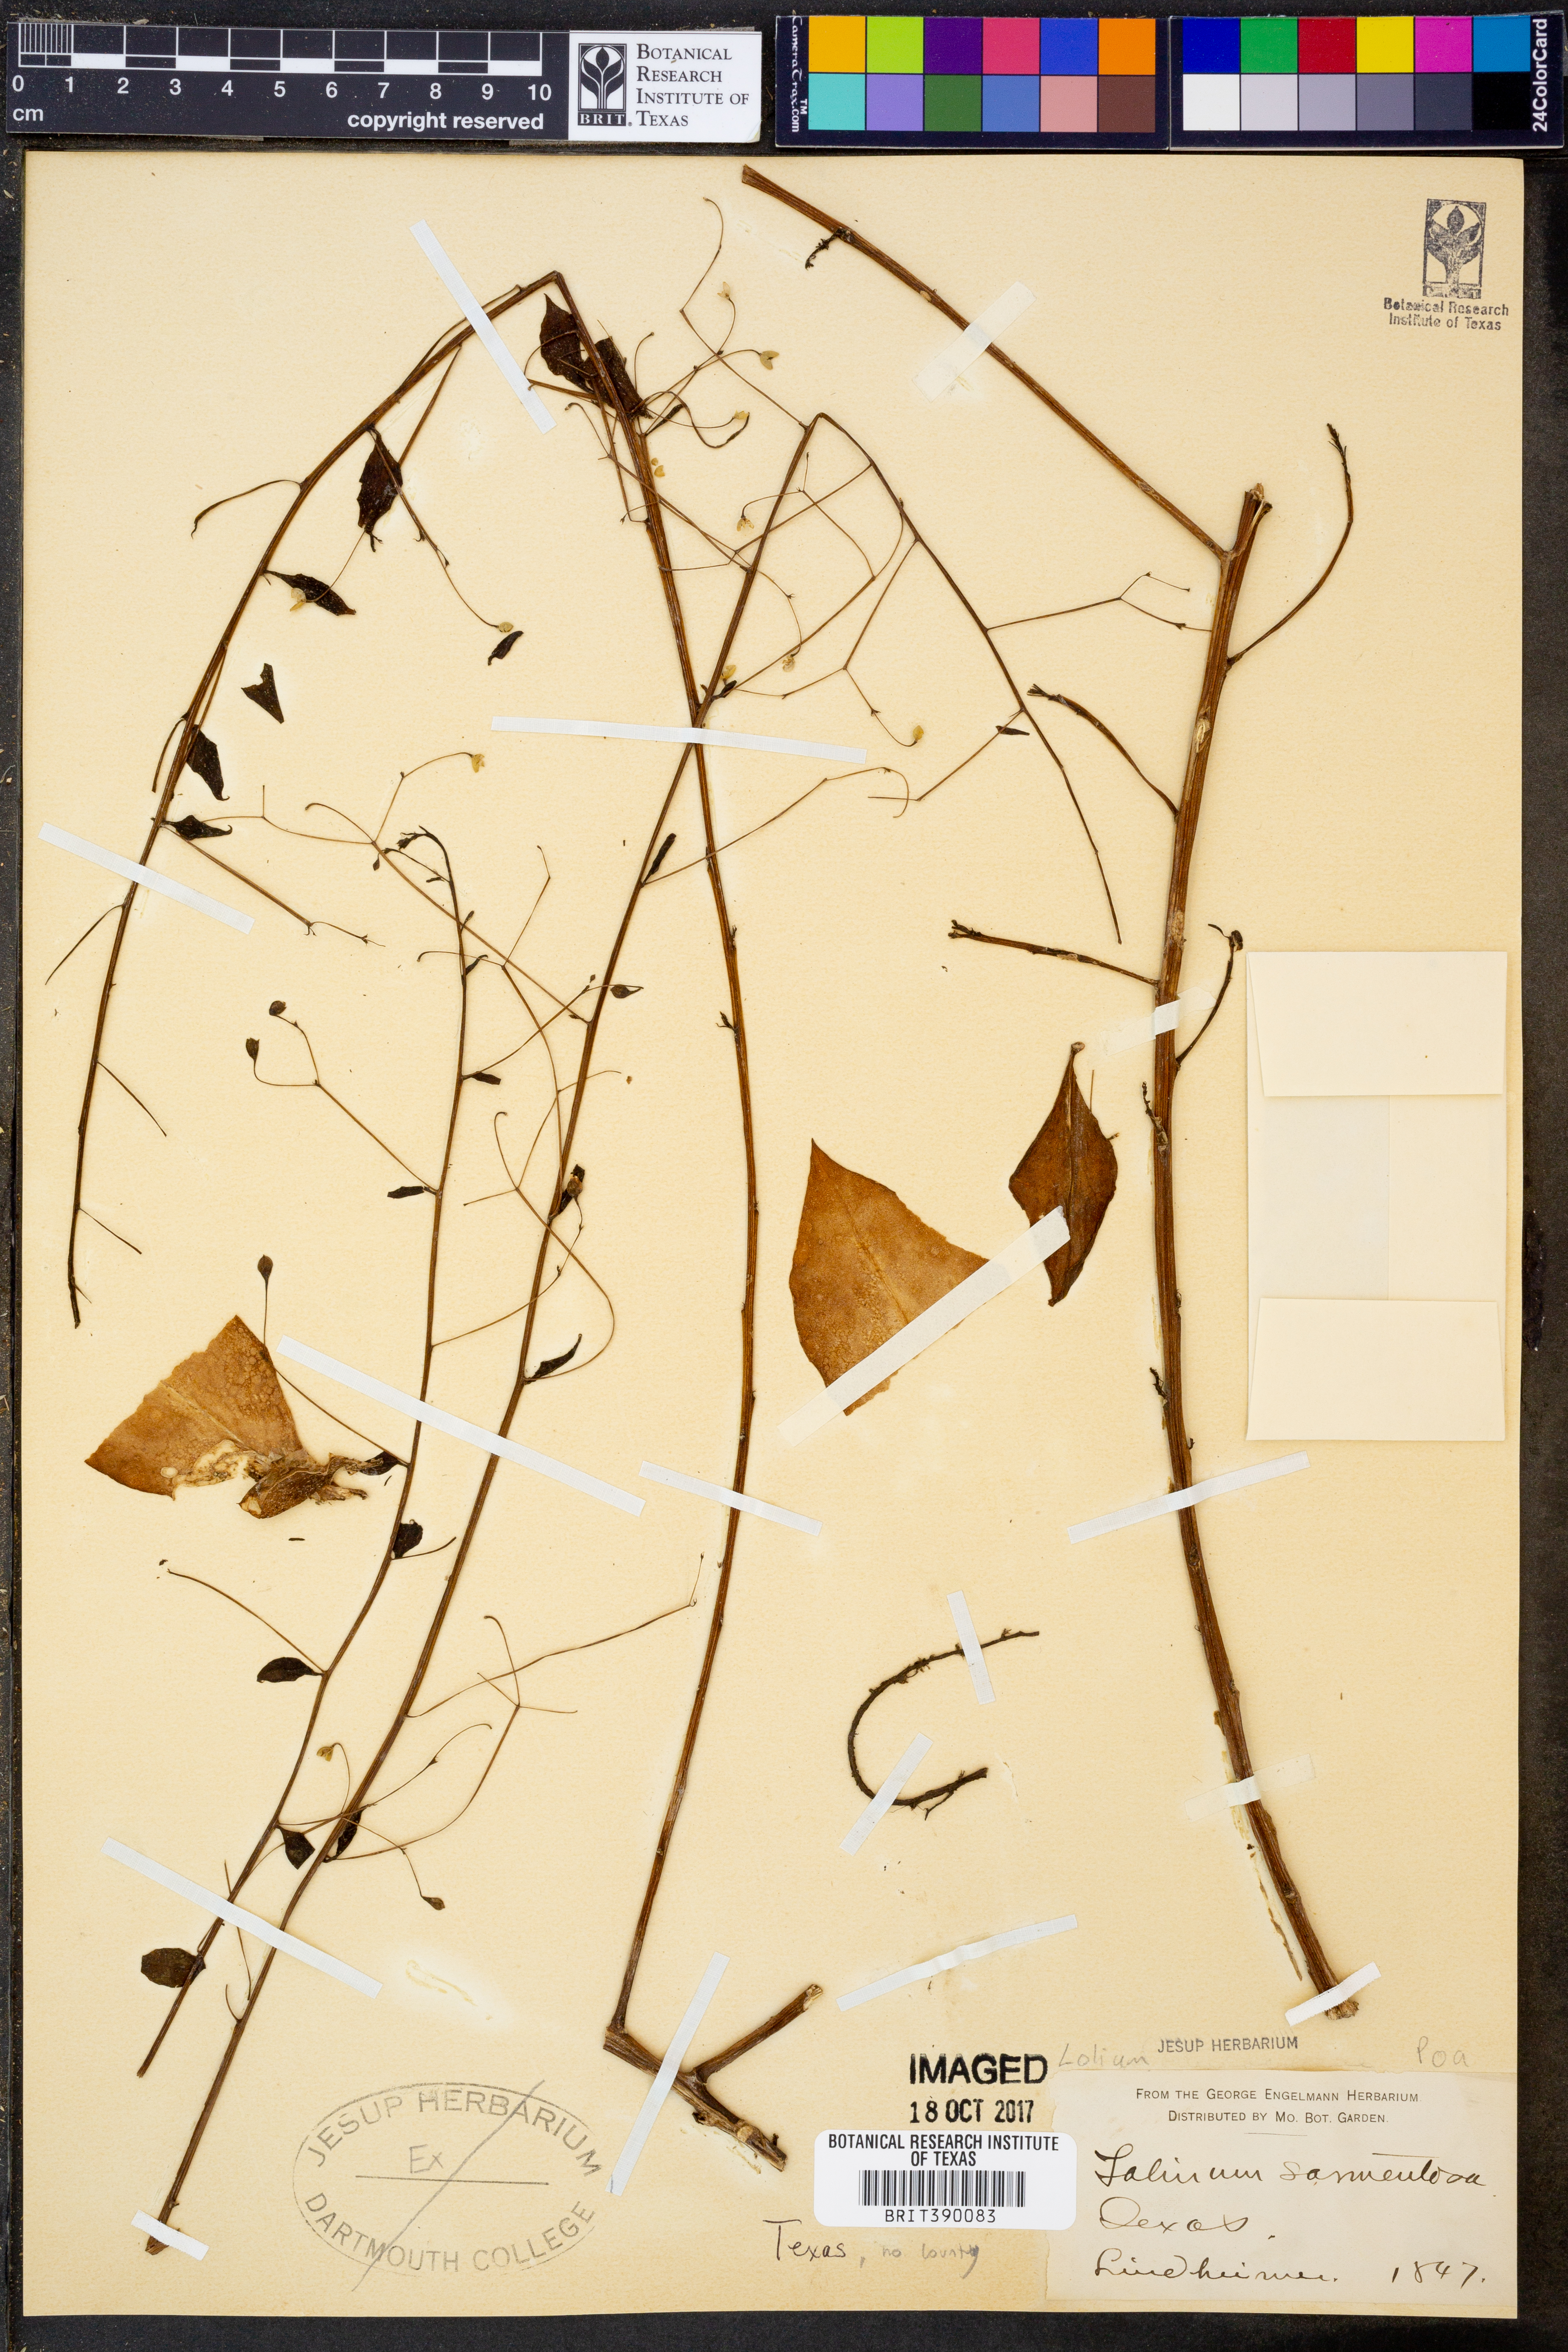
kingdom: Plantae
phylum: Tracheophyta
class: Magnoliopsida
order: Caryophyllales
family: Talinaceae
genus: Talinum
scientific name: Talinum paniculatum
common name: Jewels of opar
